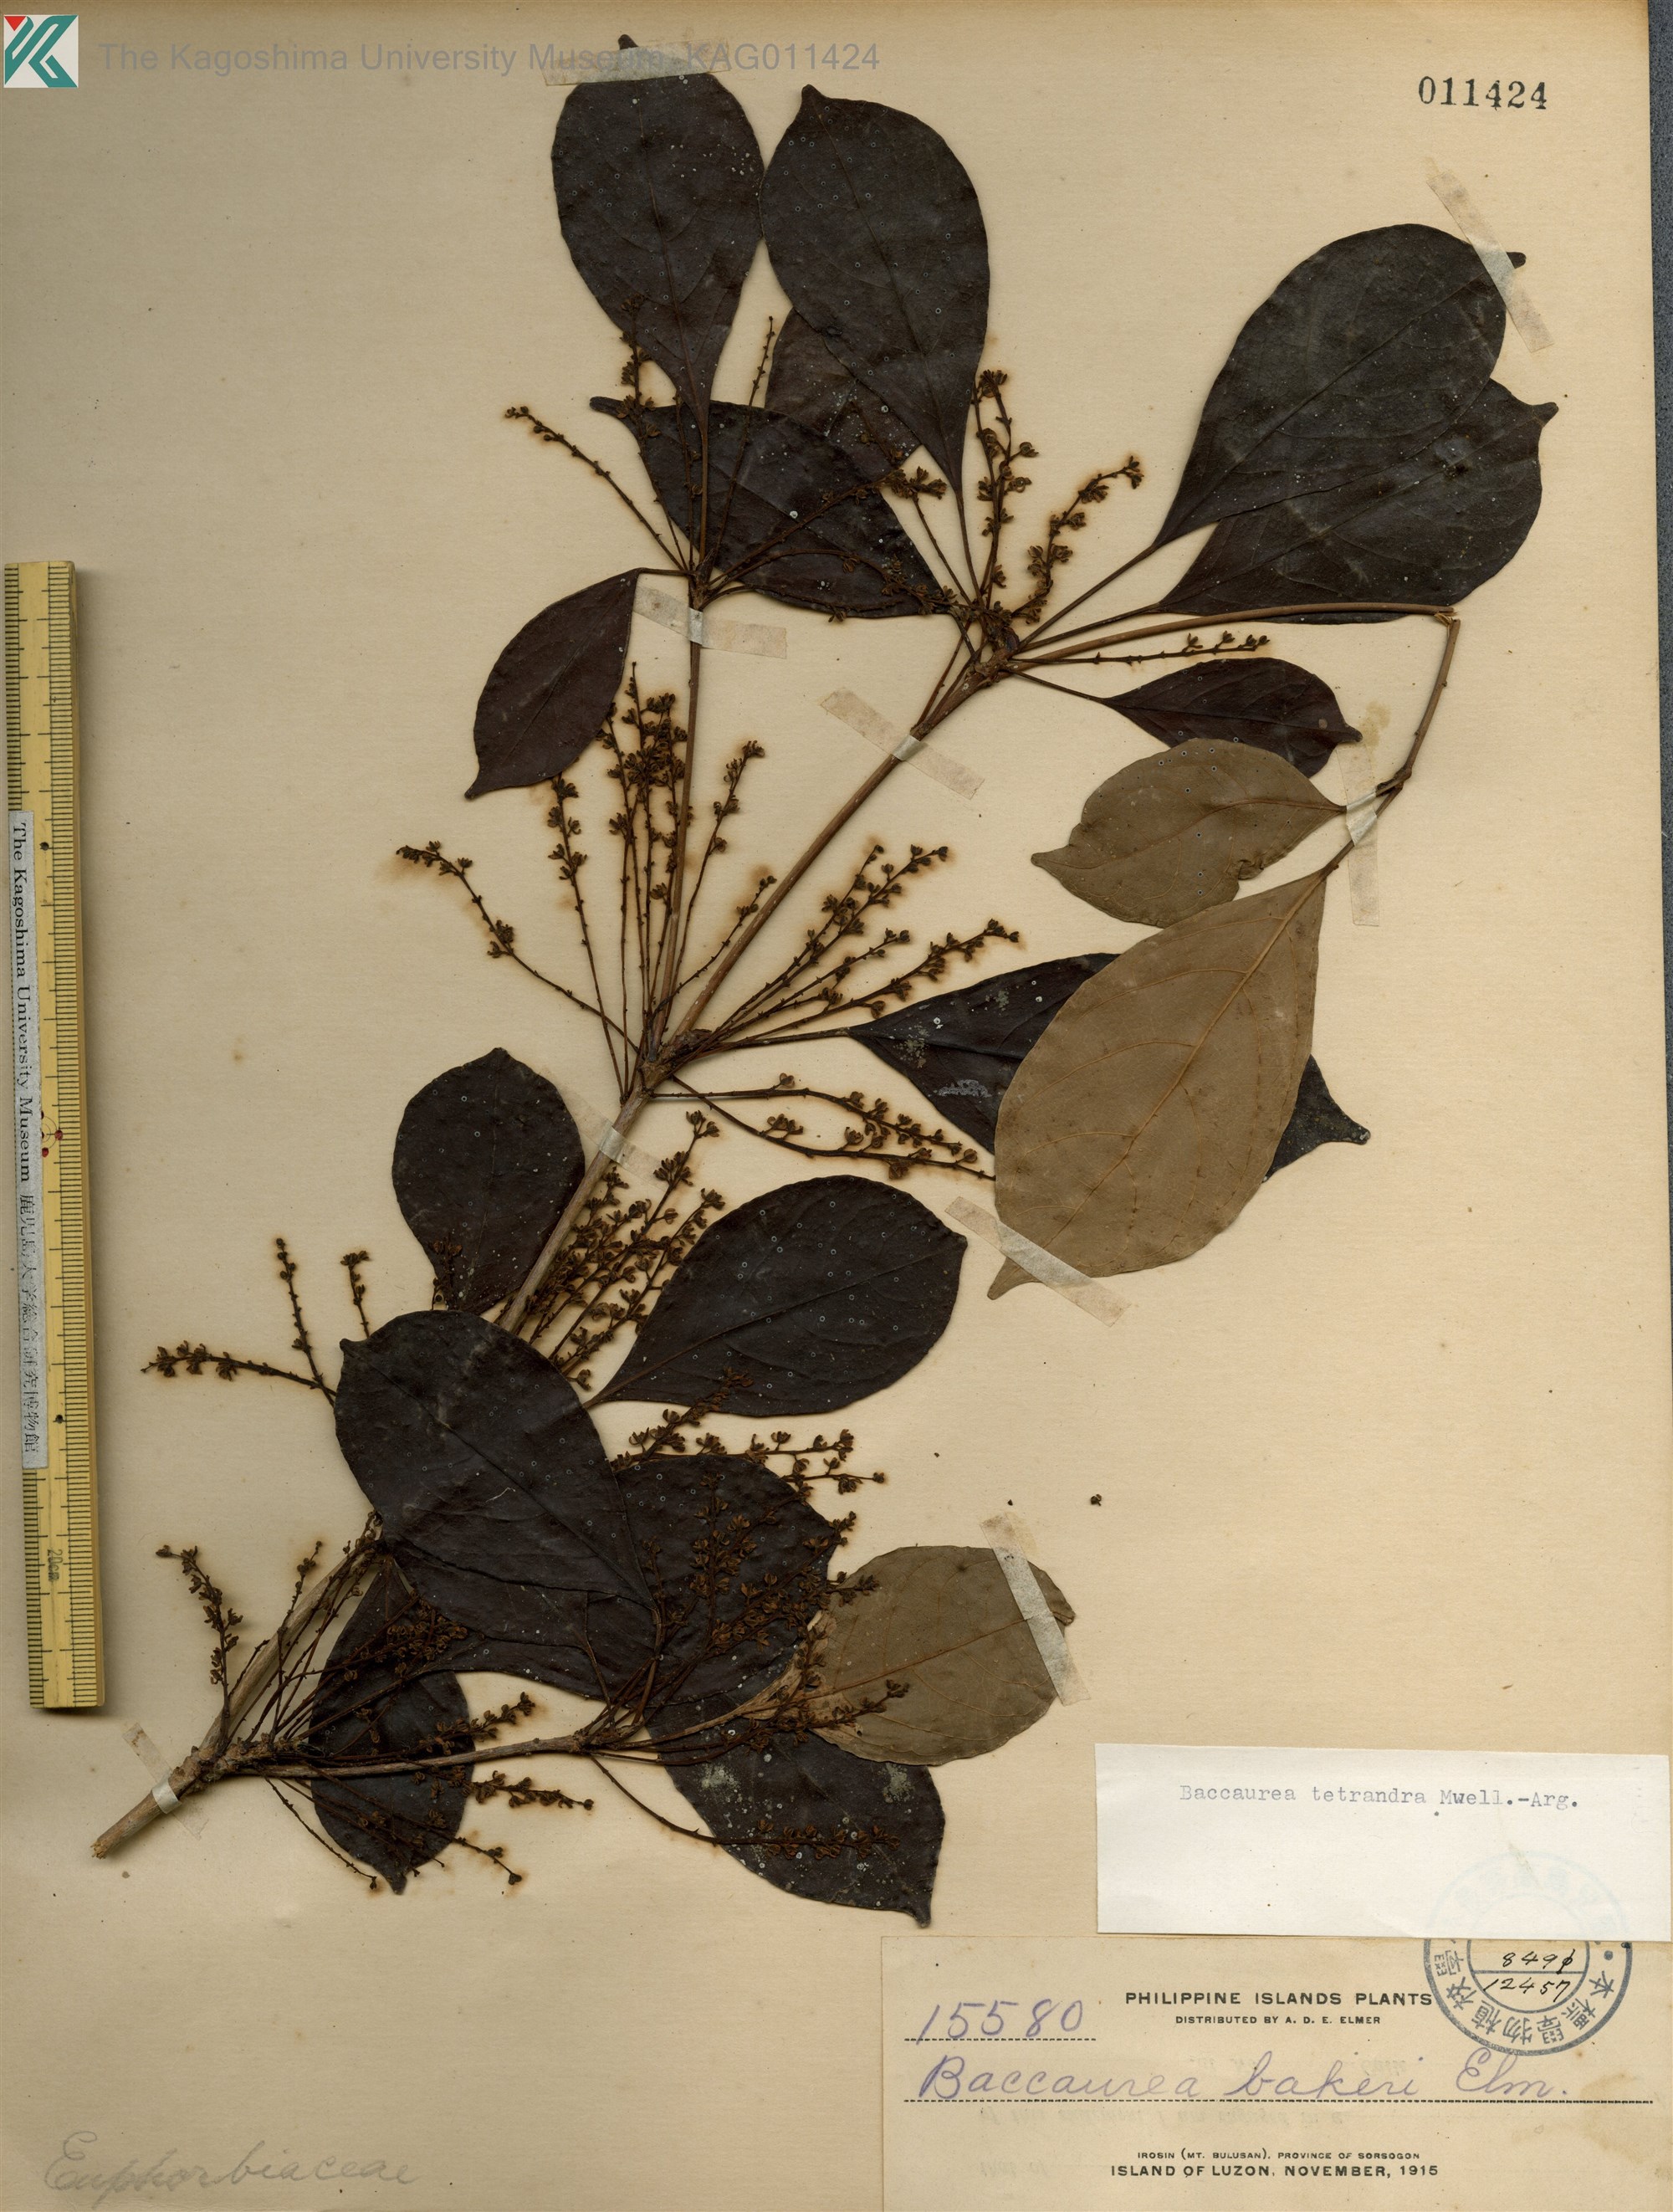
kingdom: Plantae
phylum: Tracheophyta
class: Magnoliopsida
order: Malpighiales
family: Phyllanthaceae
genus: Baccaurea
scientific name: Baccaurea tetrandra
